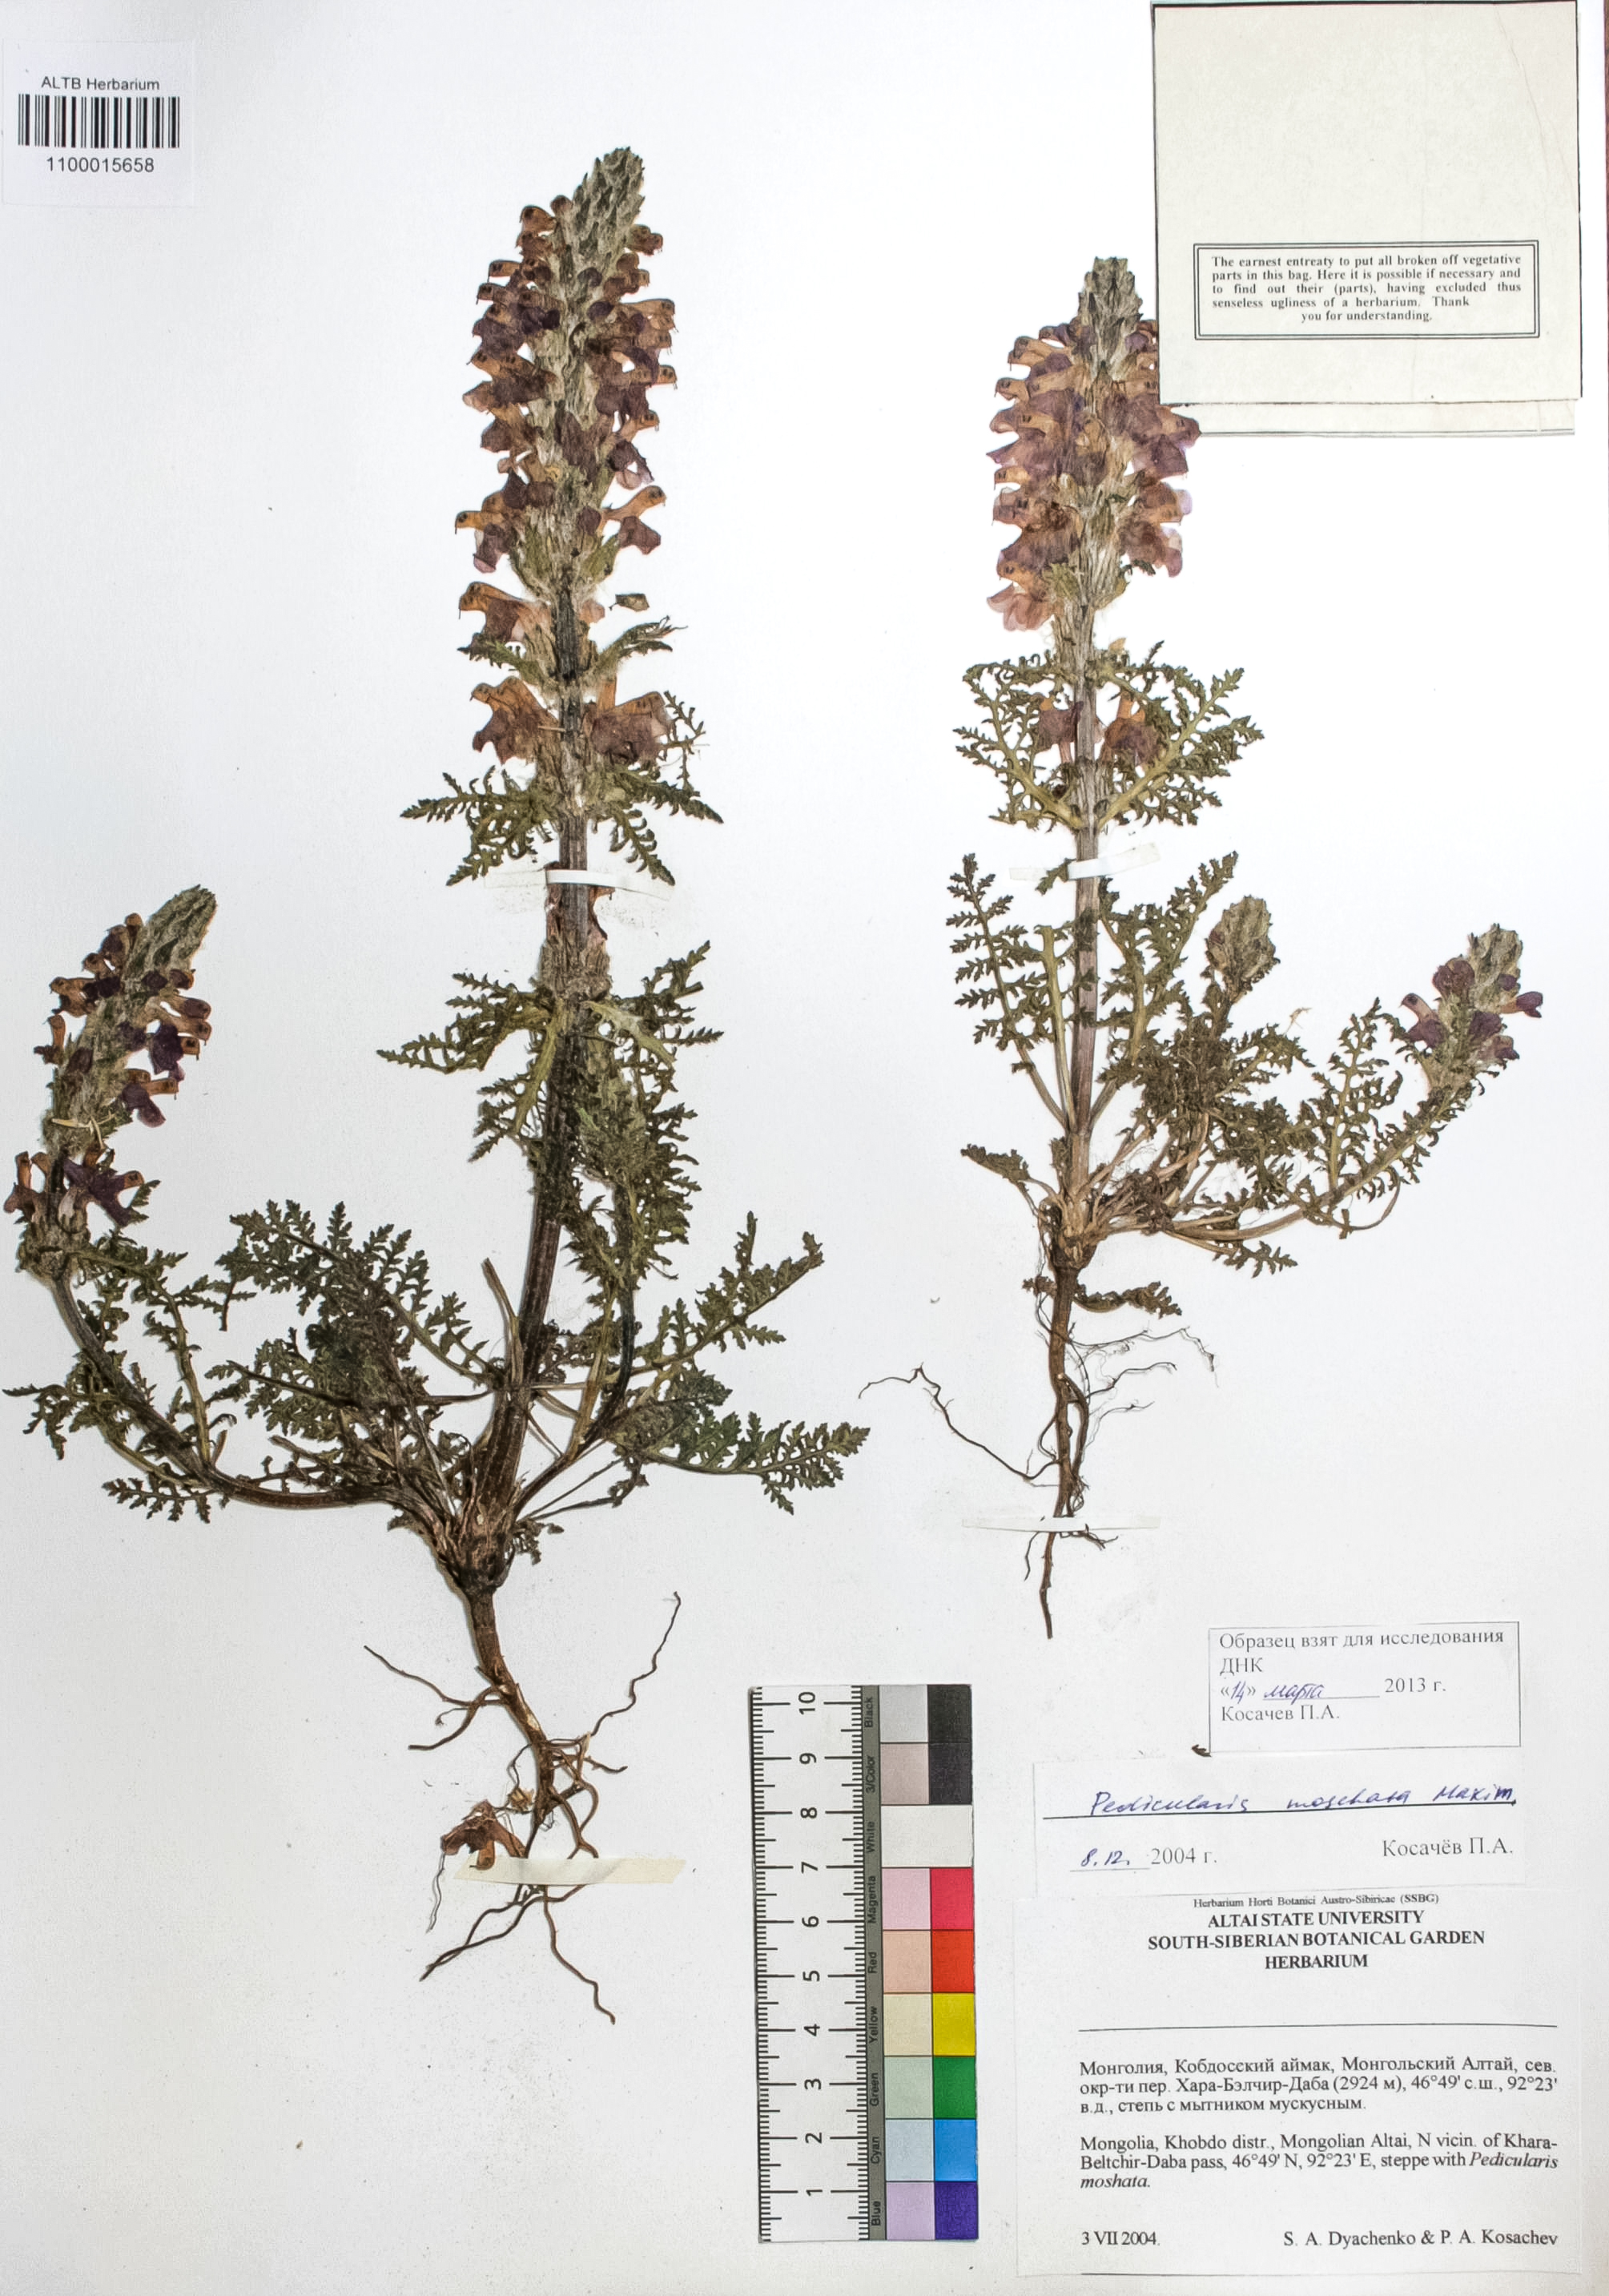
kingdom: Plantae
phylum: Tracheophyta
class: Magnoliopsida
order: Lamiales
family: Orobanchaceae
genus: Pedicularis
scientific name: Pedicularis moschata
